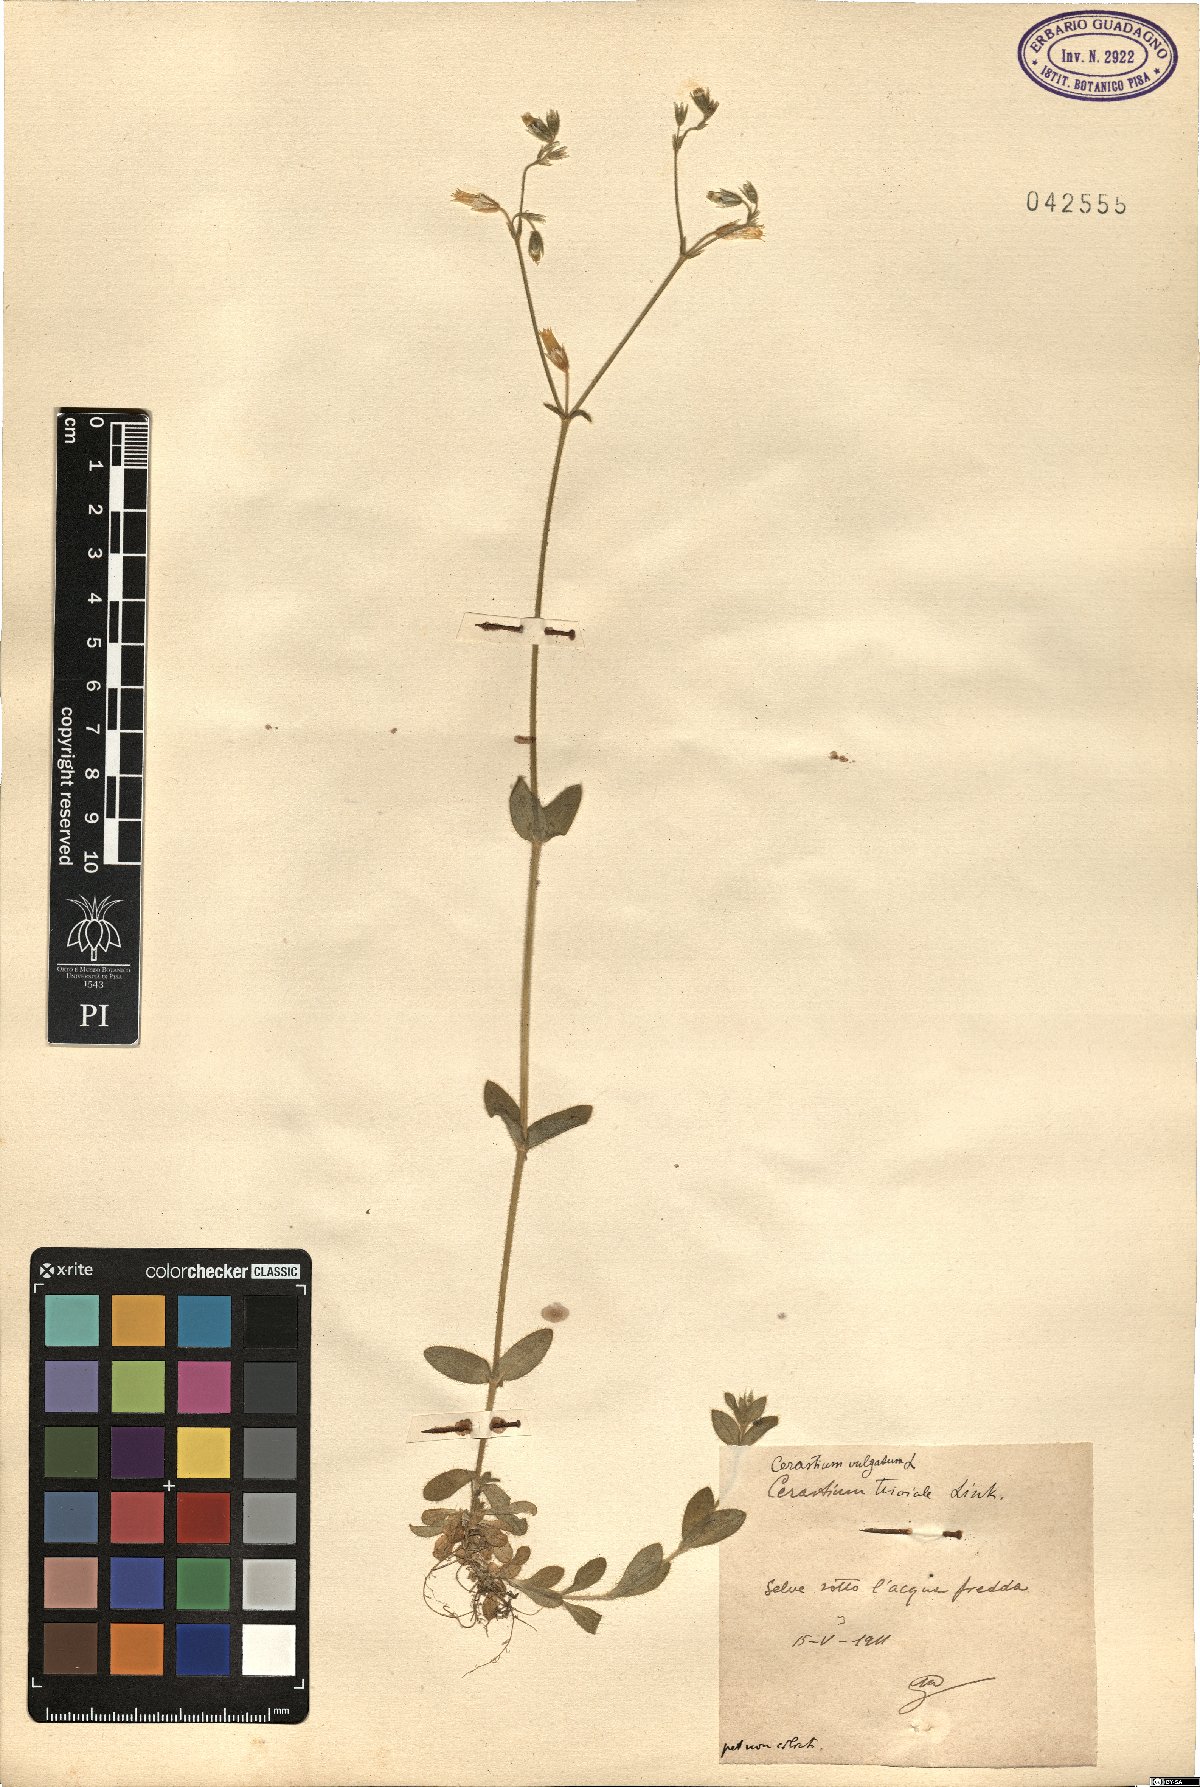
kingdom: Plantae
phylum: Tracheophyta
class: Magnoliopsida
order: Caryophyllales
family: Caryophyllaceae
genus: Cerastium
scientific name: Cerastium
